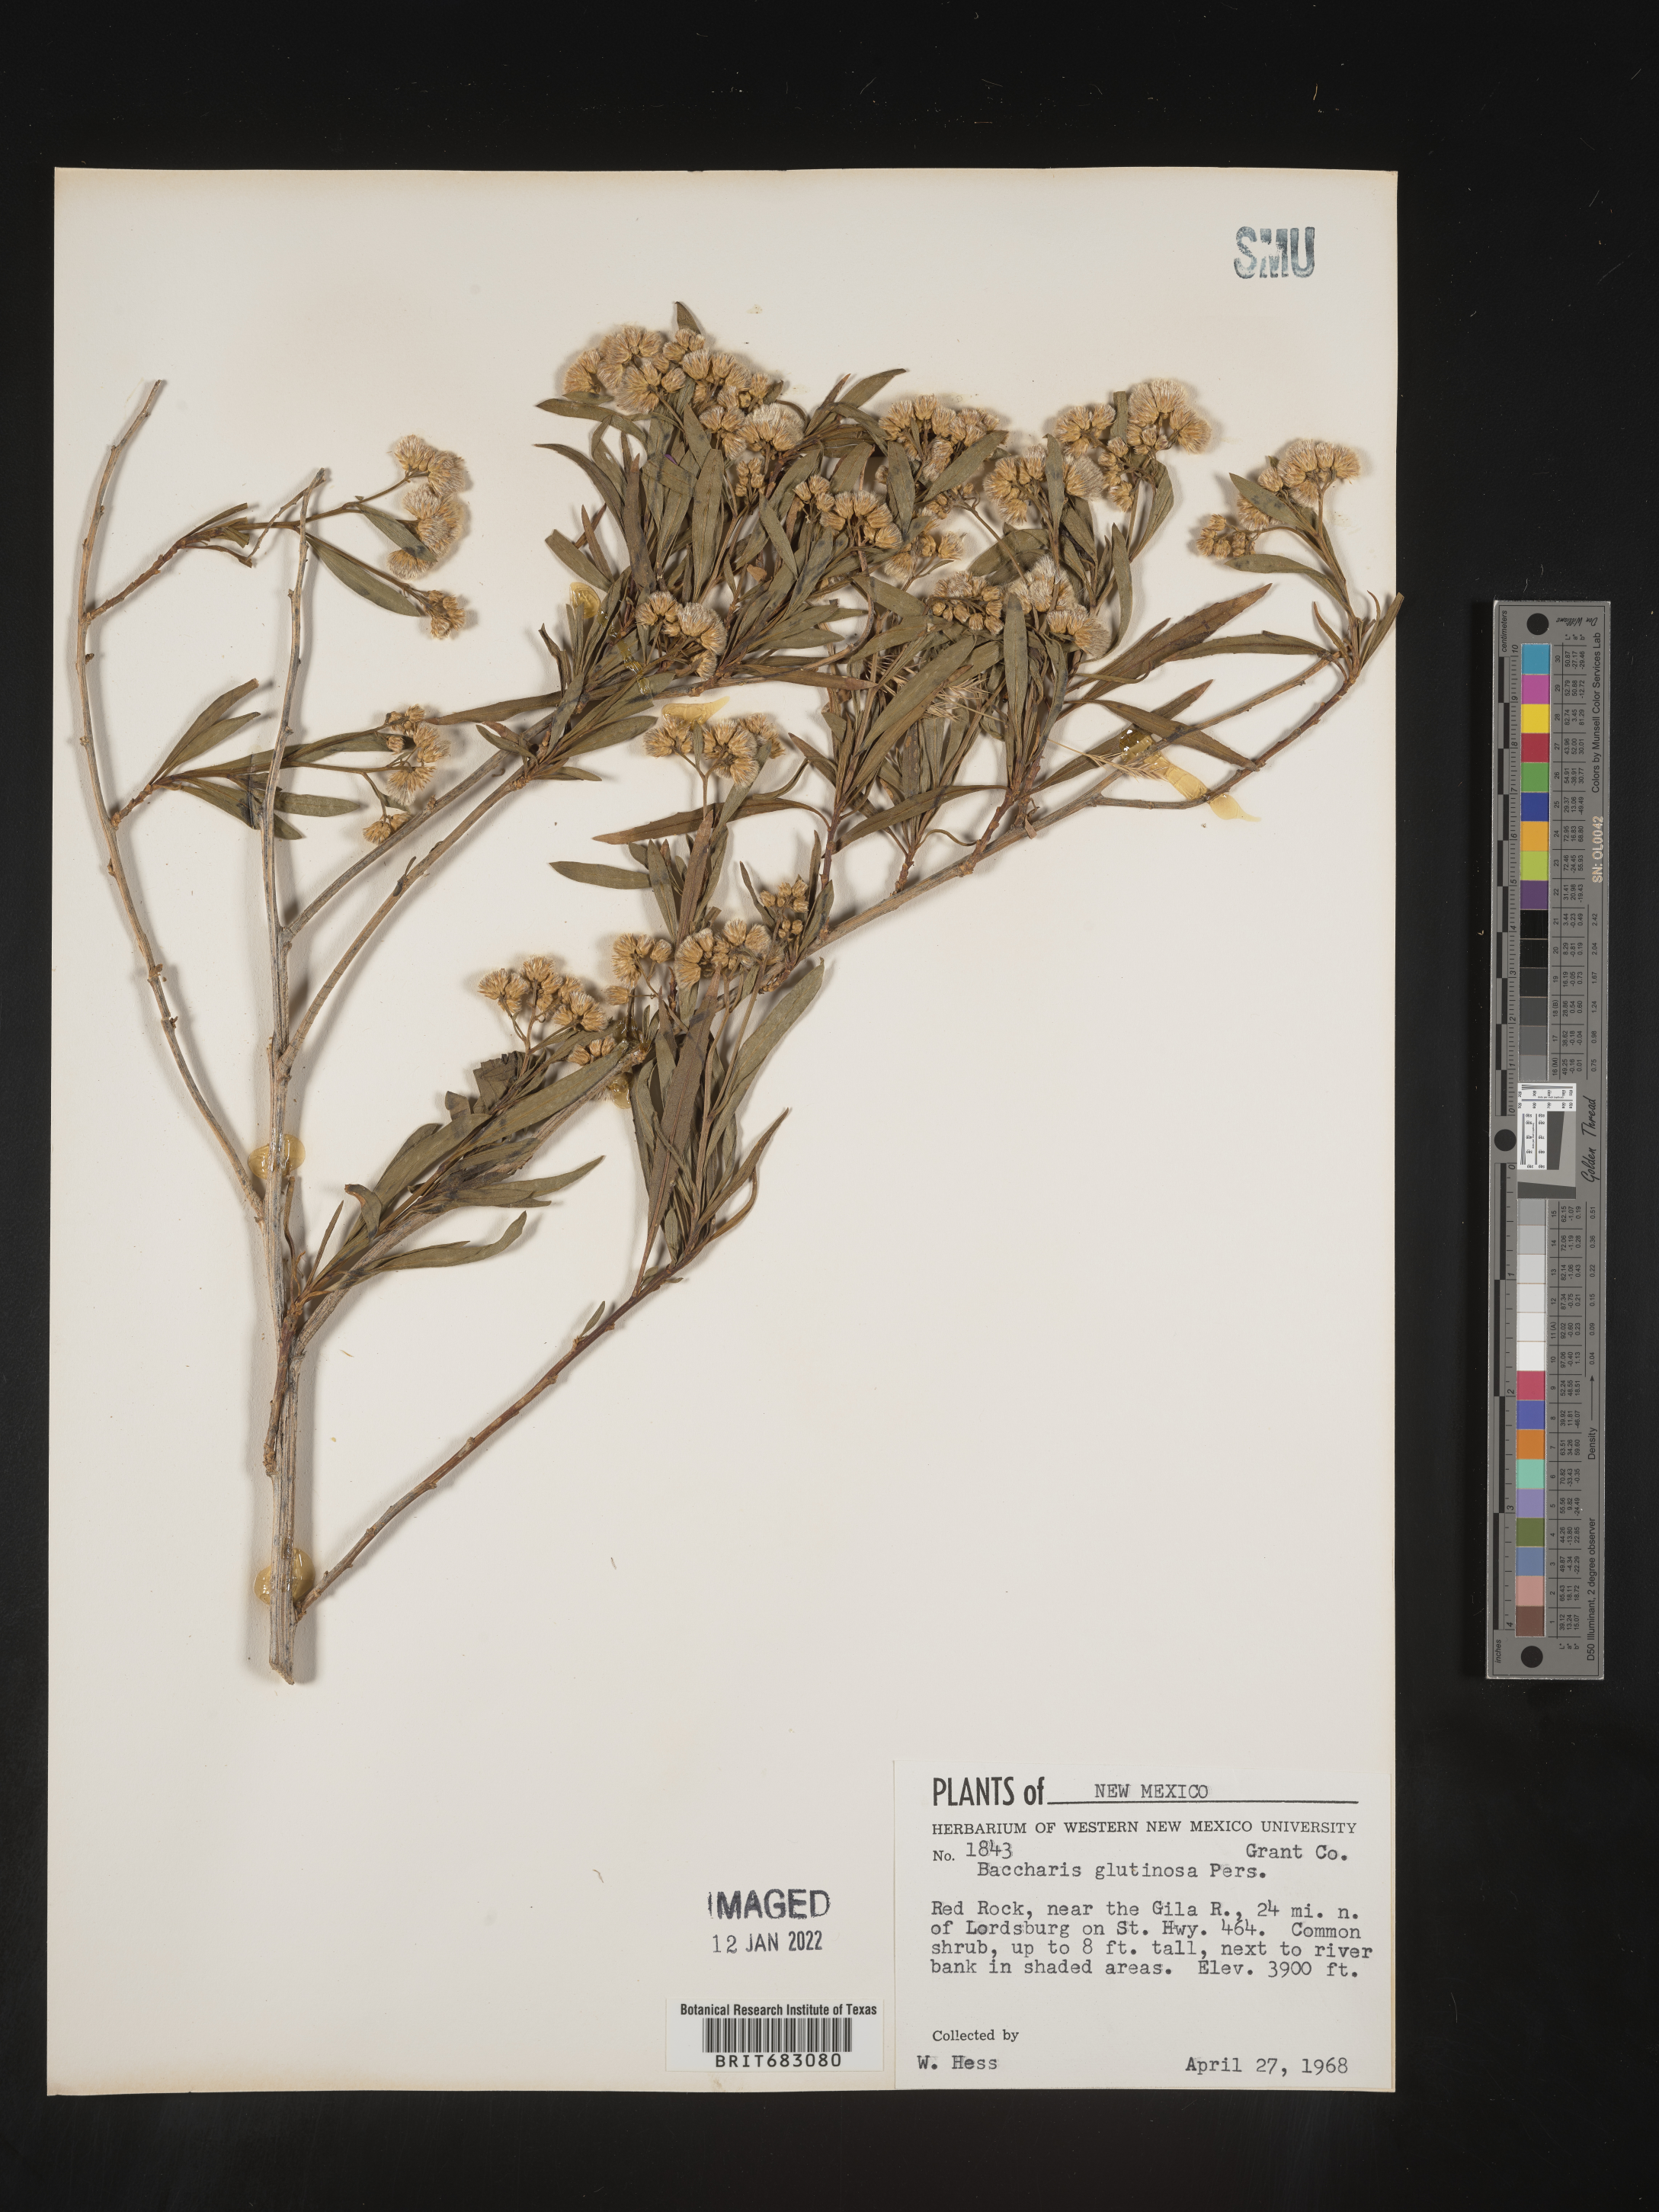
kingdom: Plantae
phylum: Tracheophyta
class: Magnoliopsida
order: Asterales
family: Asteraceae
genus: Baccharis
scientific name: Baccharis salicifolia
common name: Sticky baccharis
